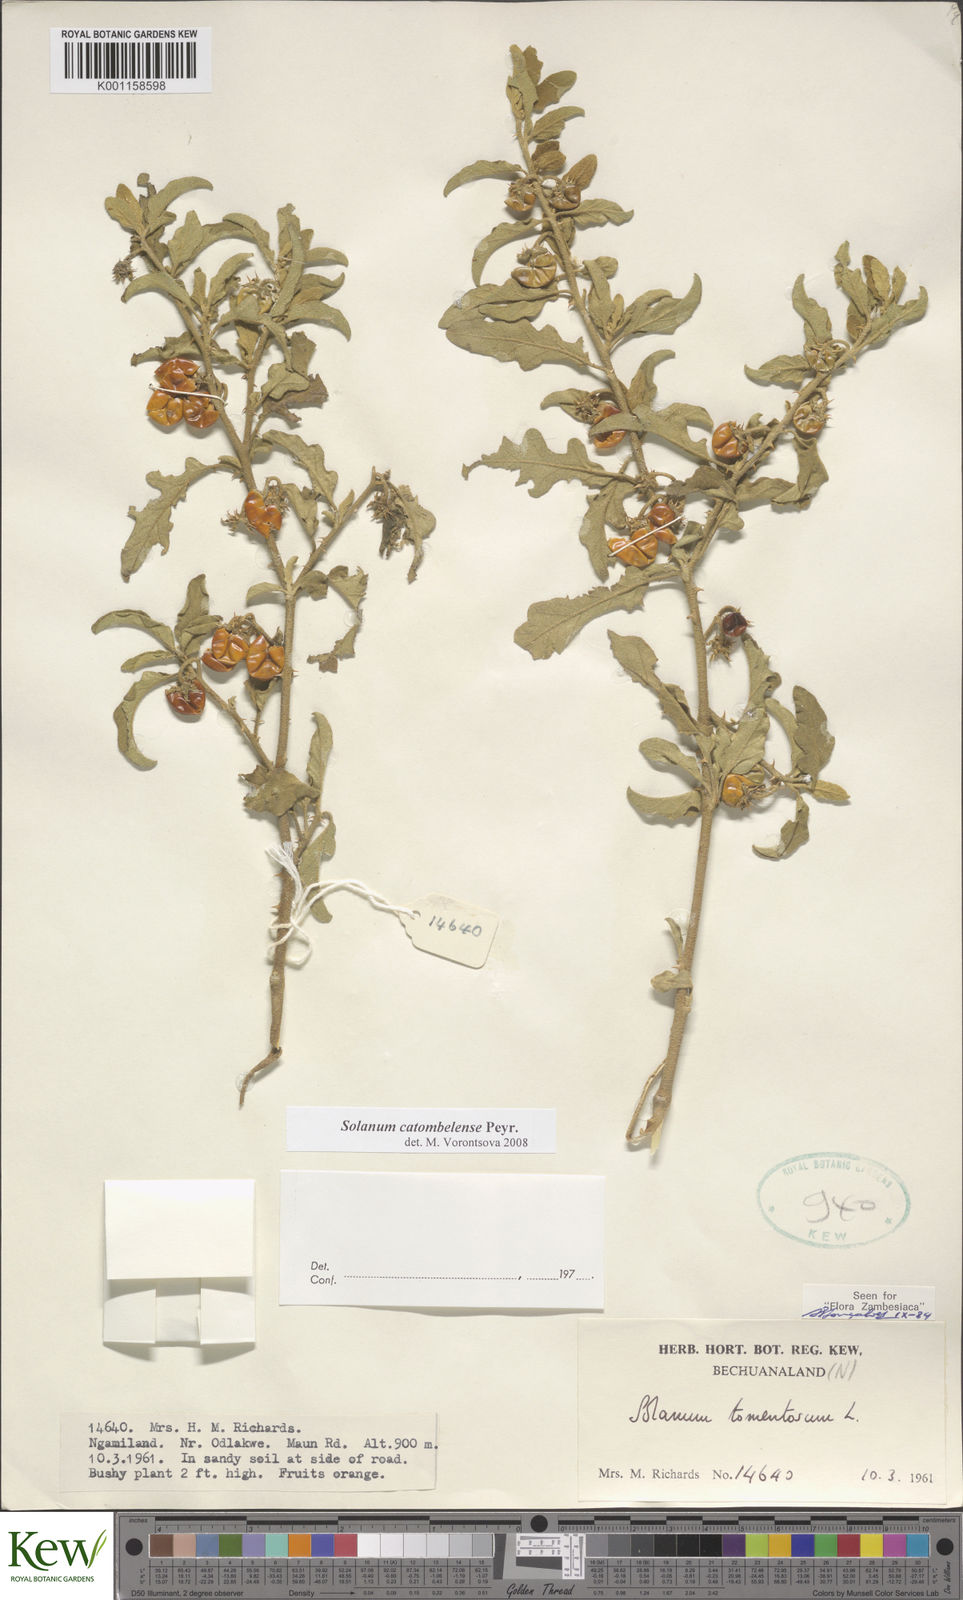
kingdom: Plantae
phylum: Tracheophyta
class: Magnoliopsida
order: Solanales
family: Solanaceae
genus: Solanum
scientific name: Solanum catombelense
